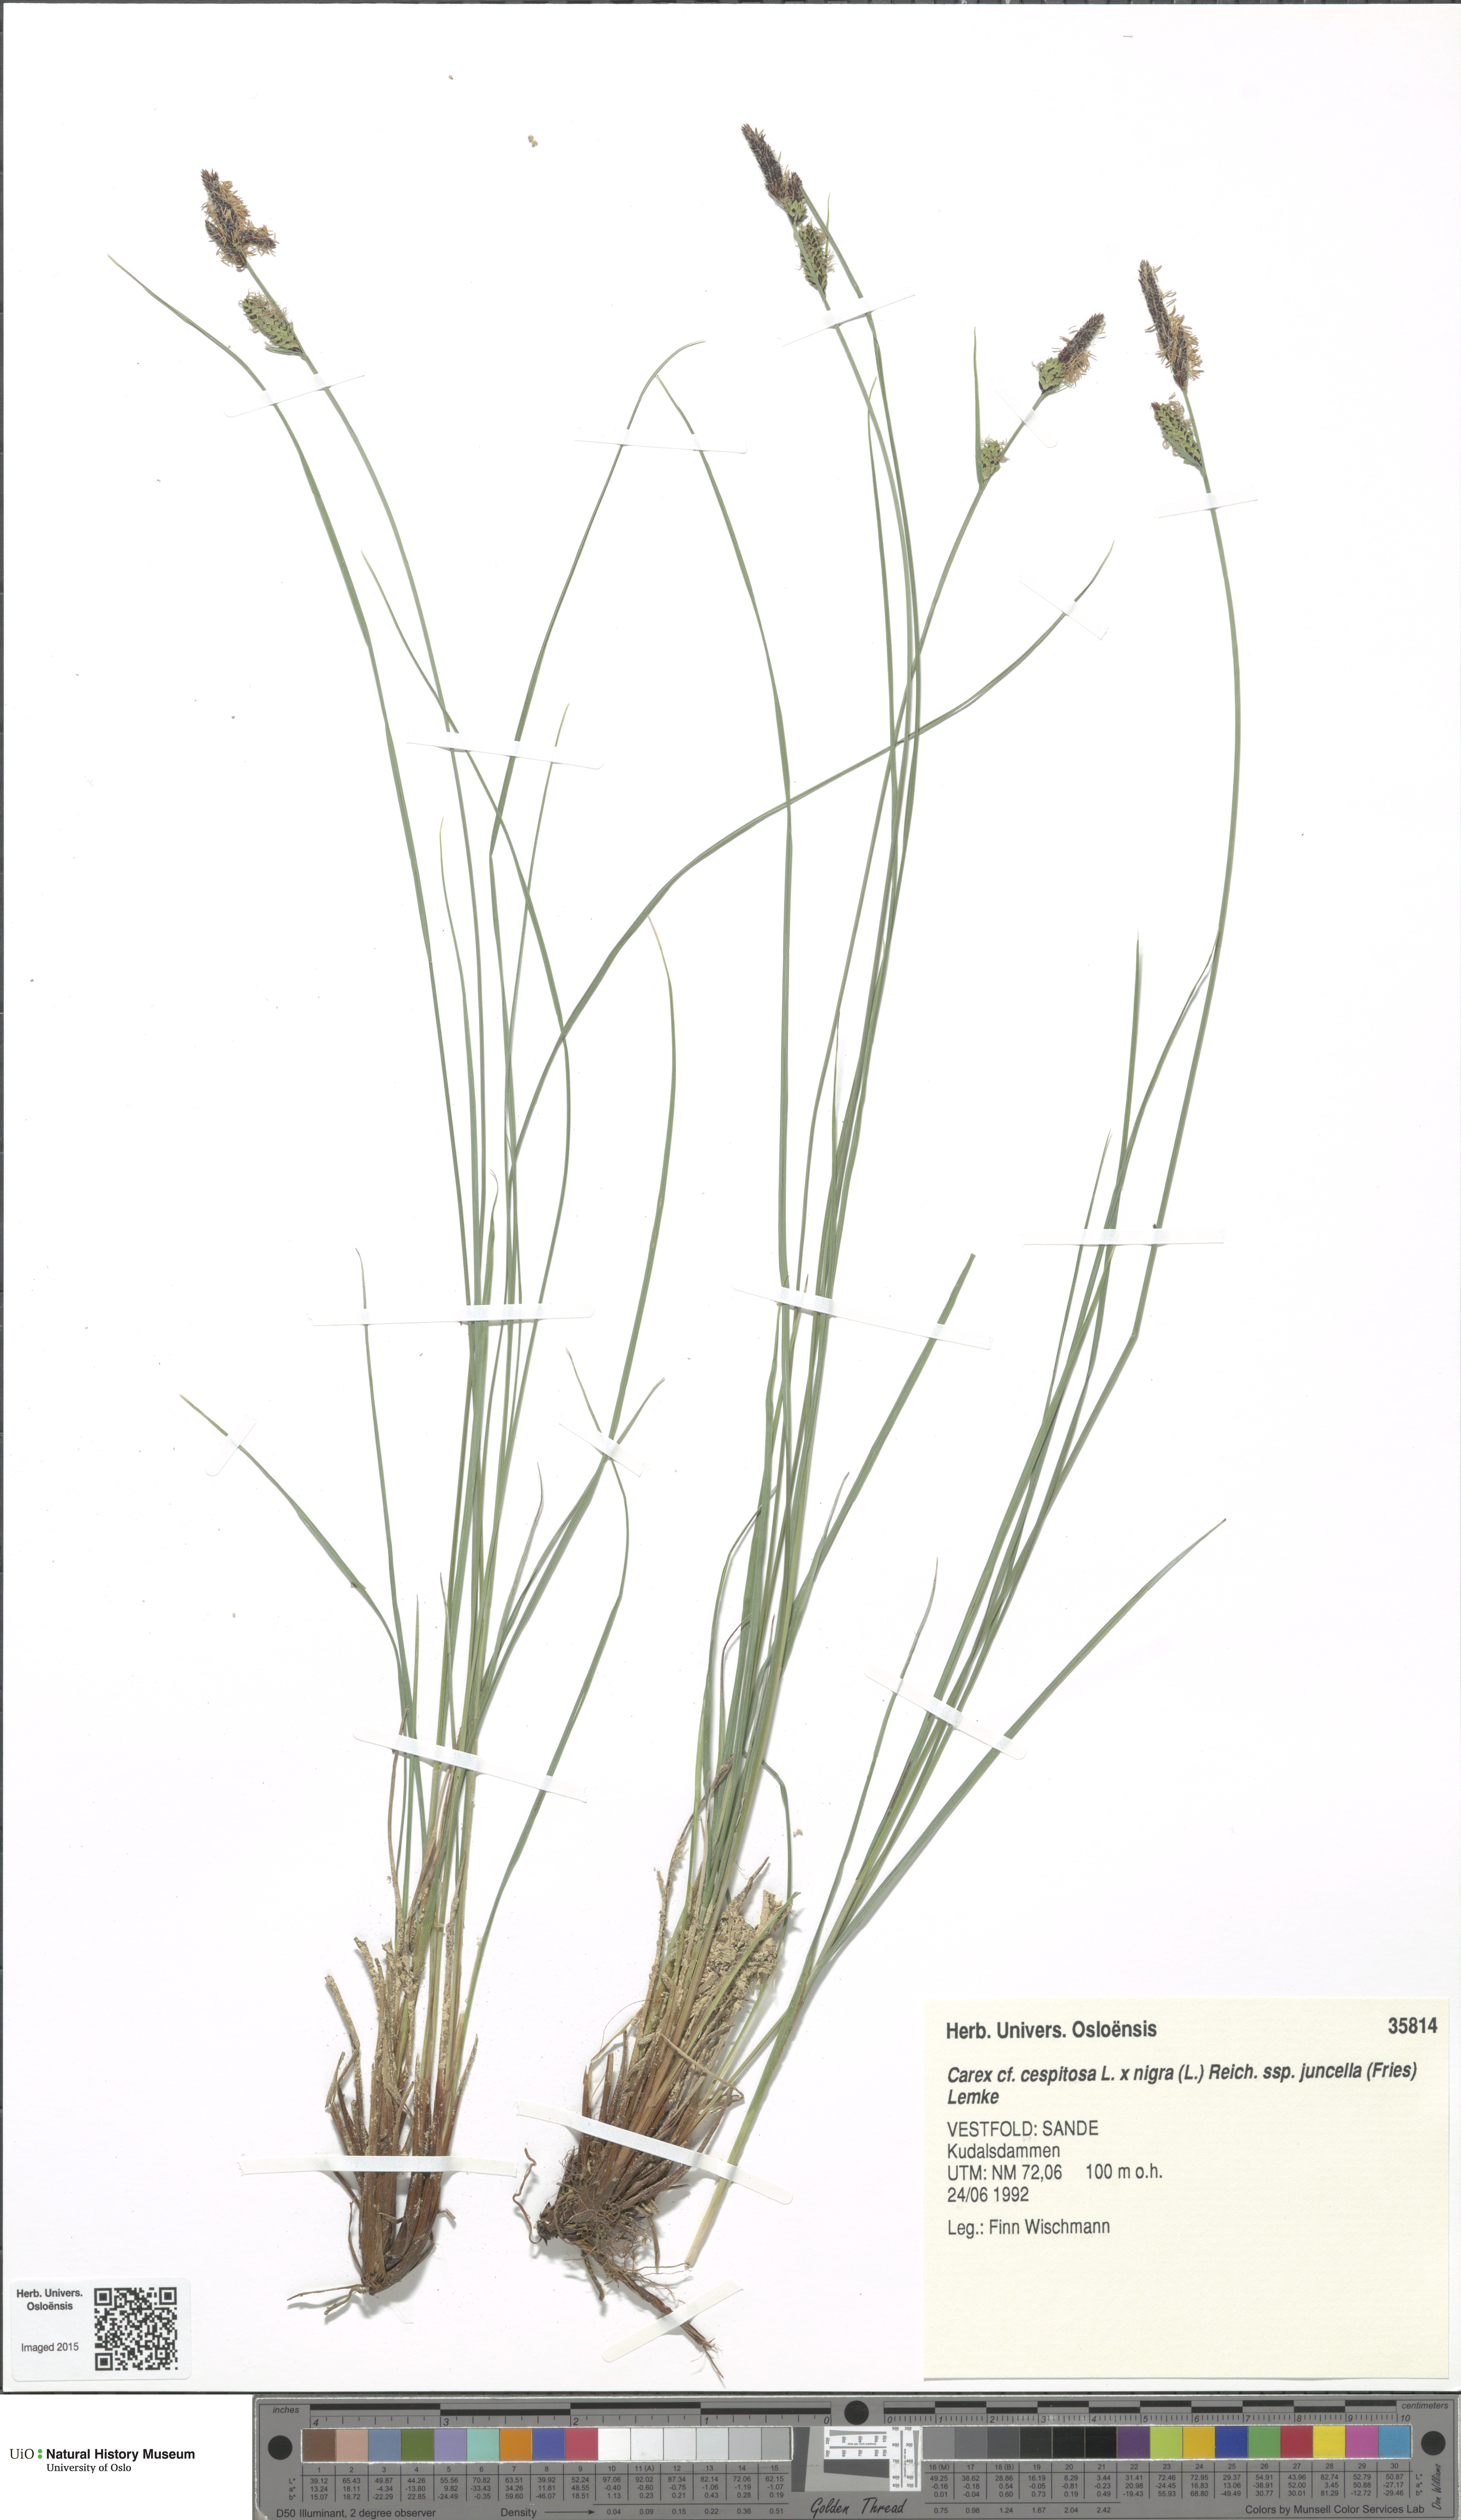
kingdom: Plantae
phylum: Tracheophyta
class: Liliopsida
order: Poales
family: Cyperaceae
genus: Carex
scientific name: Carex
